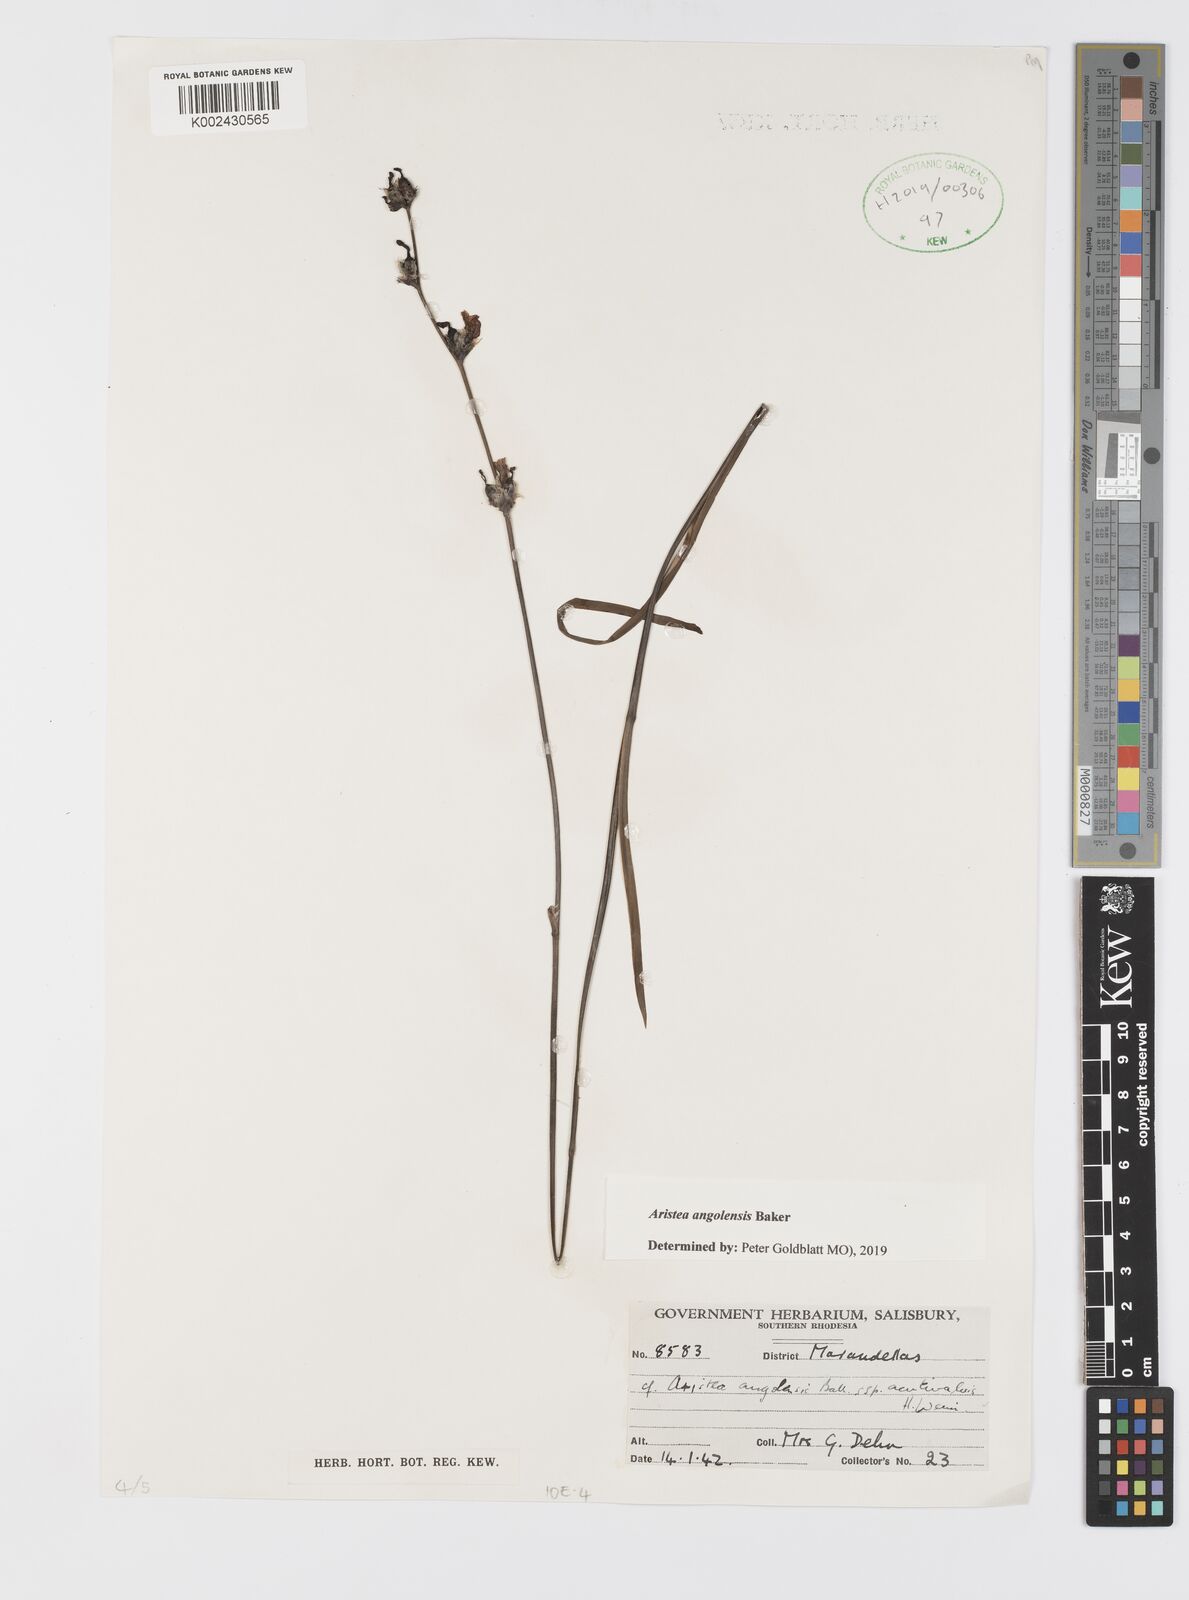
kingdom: Plantae
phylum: Tracheophyta
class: Liliopsida
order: Asparagales
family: Iridaceae
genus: Aristea
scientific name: Aristea angolensis
